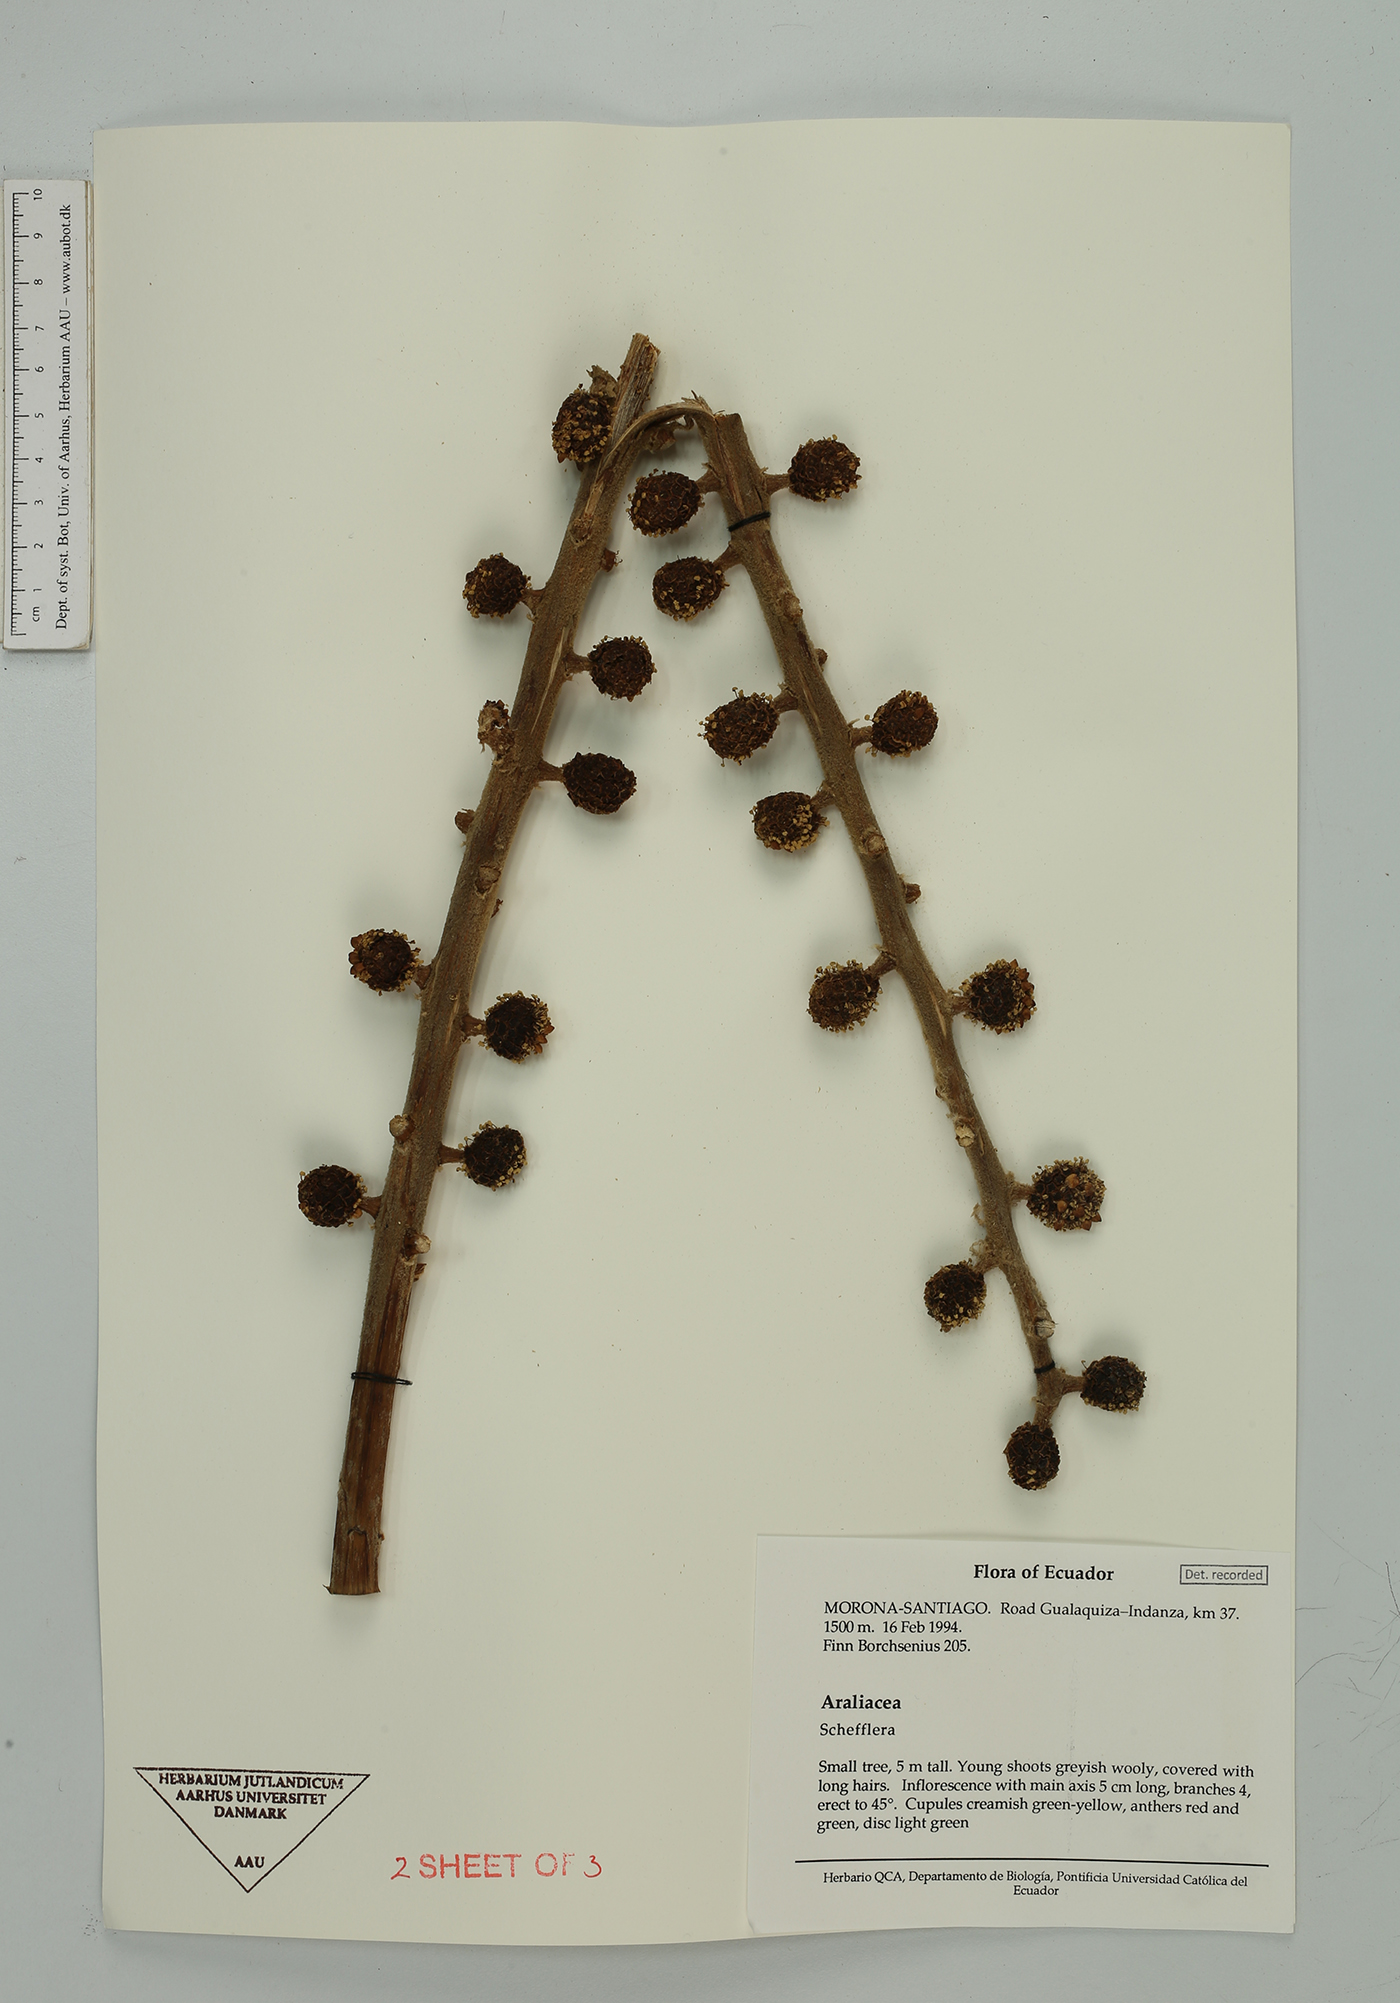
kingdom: Plantae
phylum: Tracheophyta
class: Magnoliopsida
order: Apiales
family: Araliaceae
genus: Schefflera
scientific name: Schefflera
